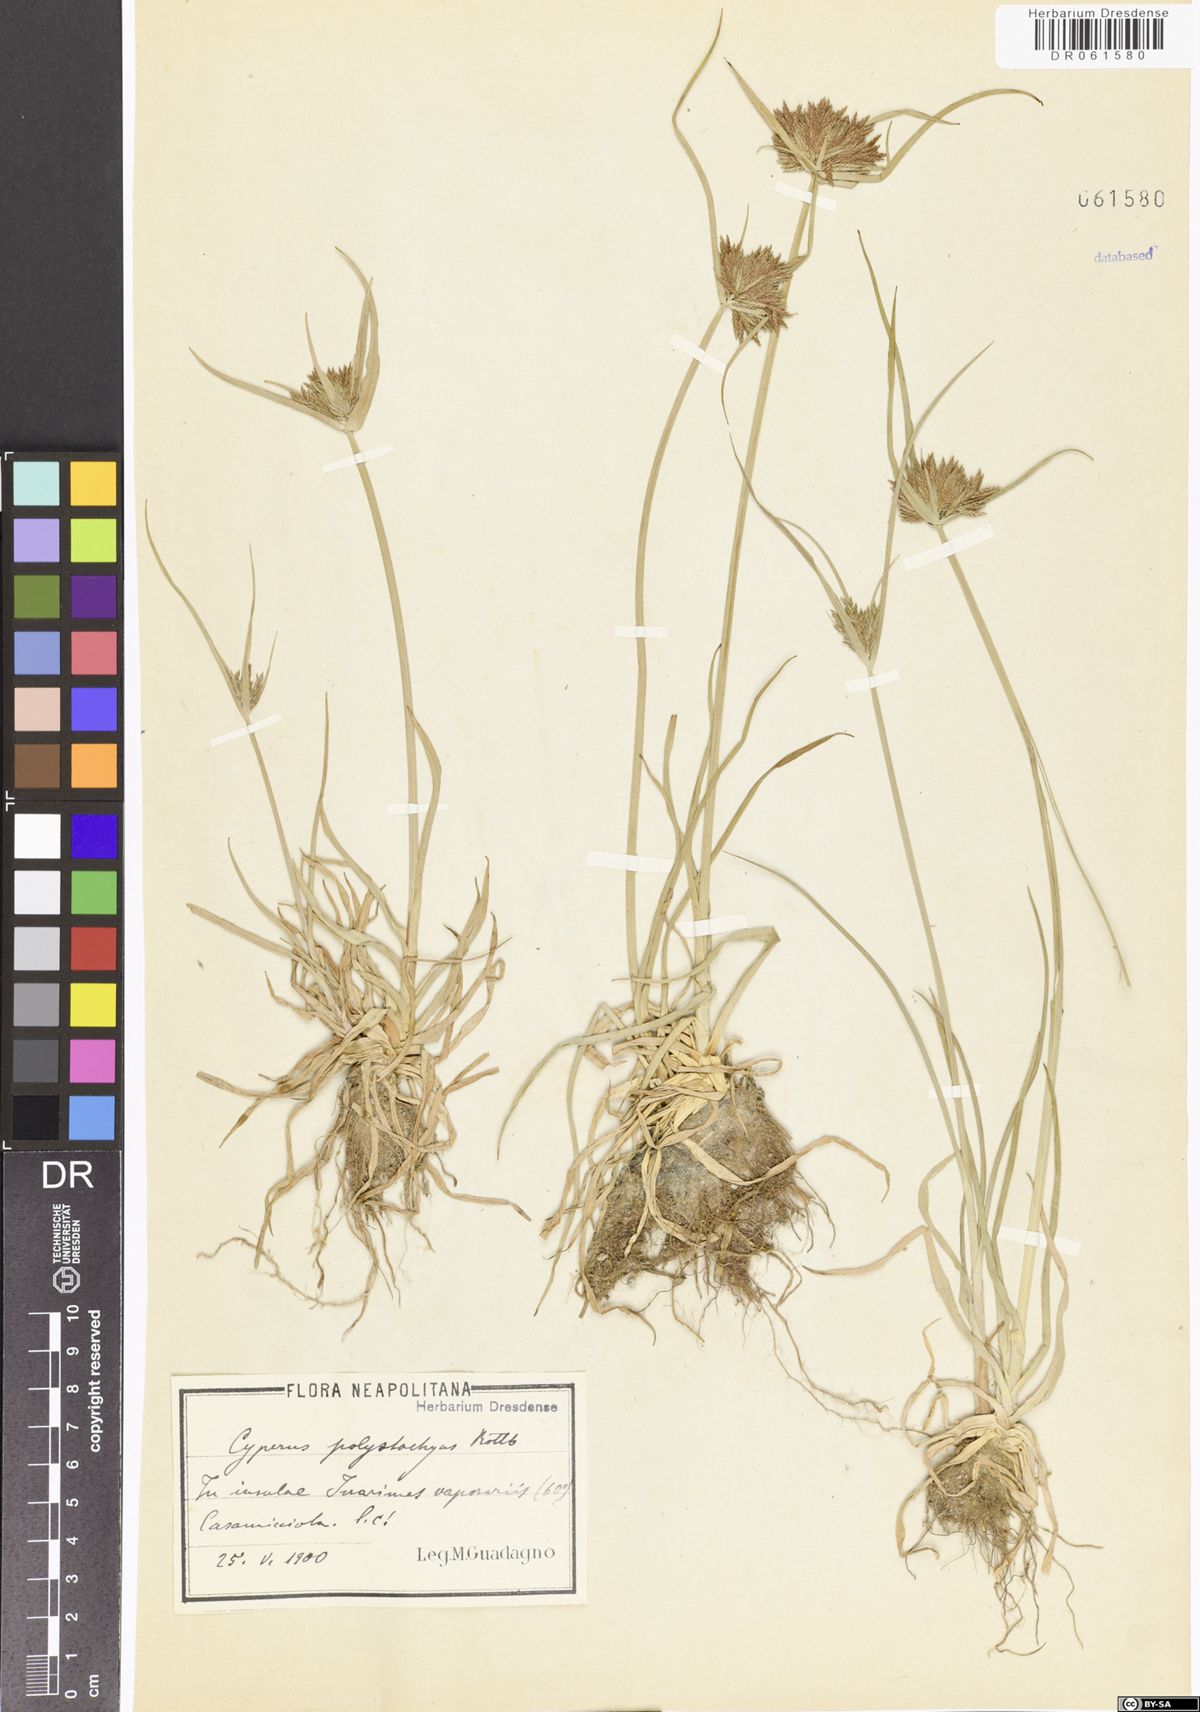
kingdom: Plantae
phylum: Tracheophyta
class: Liliopsida
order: Poales
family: Cyperaceae
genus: Cyperus
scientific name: Cyperus polystachyos
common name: Bunchy flat sedge
